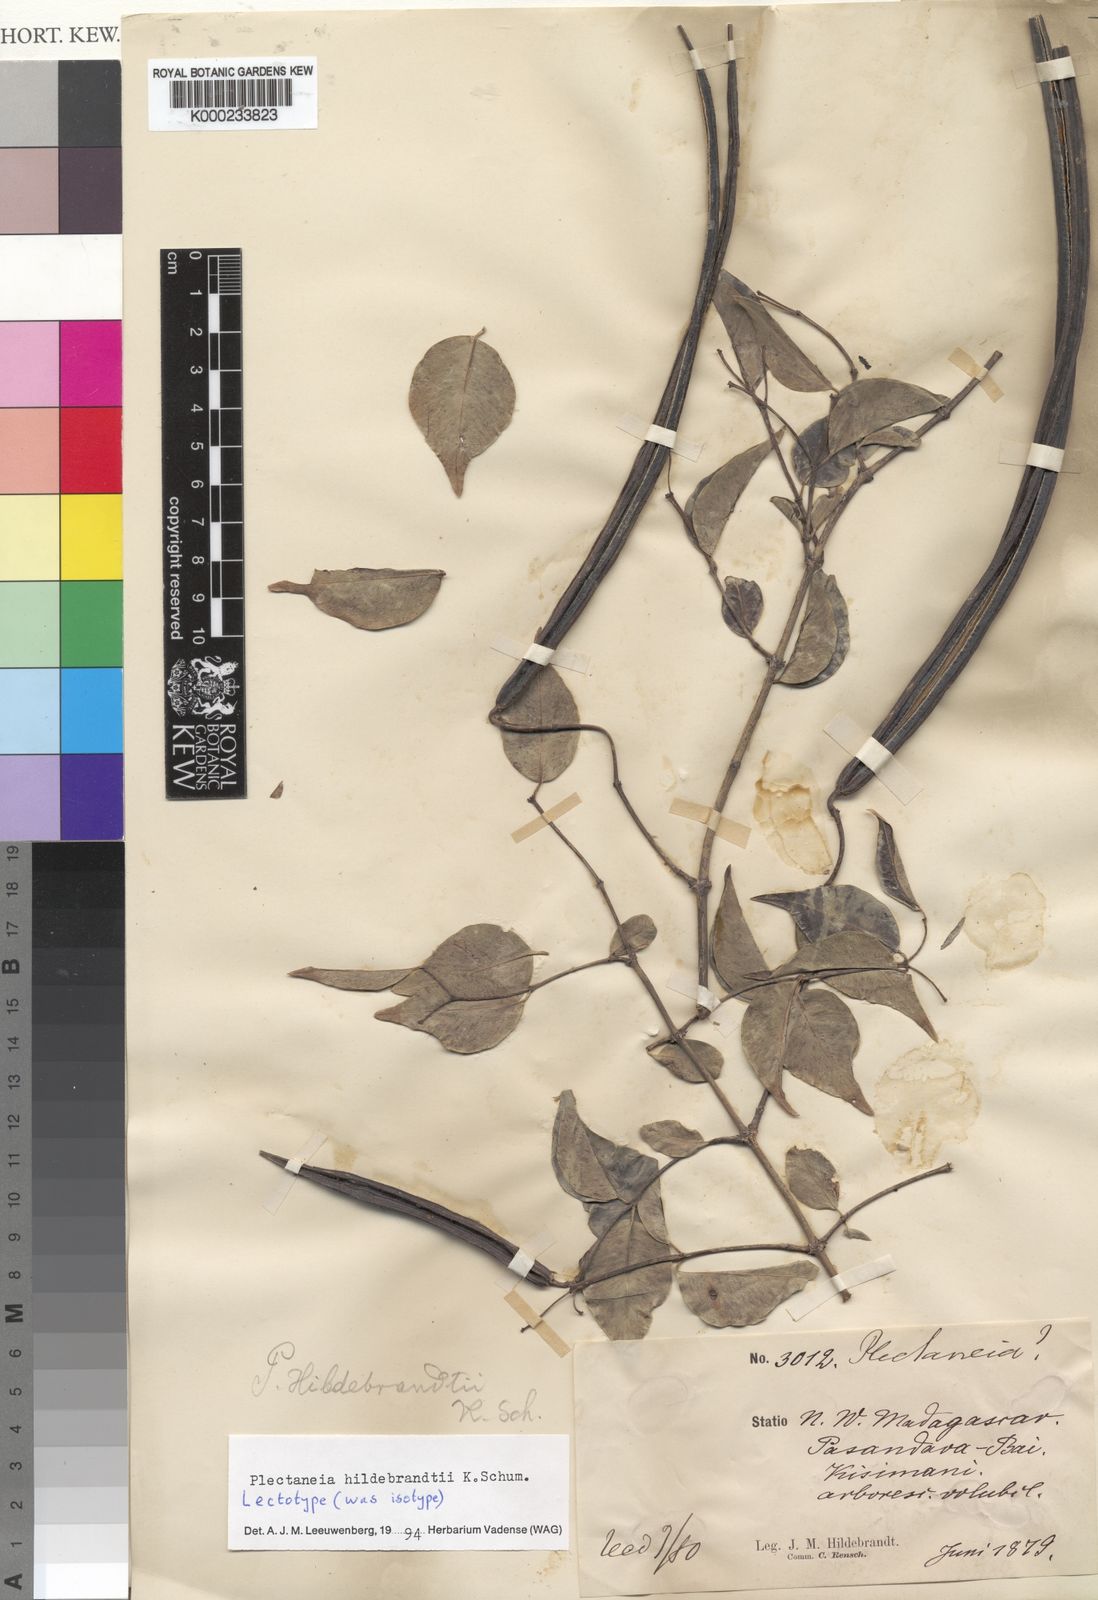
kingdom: Plantae
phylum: Tracheophyta
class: Magnoliopsida
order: Gentianales
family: Apocynaceae
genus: Plectaneia
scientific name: Plectaneia thouarsii
